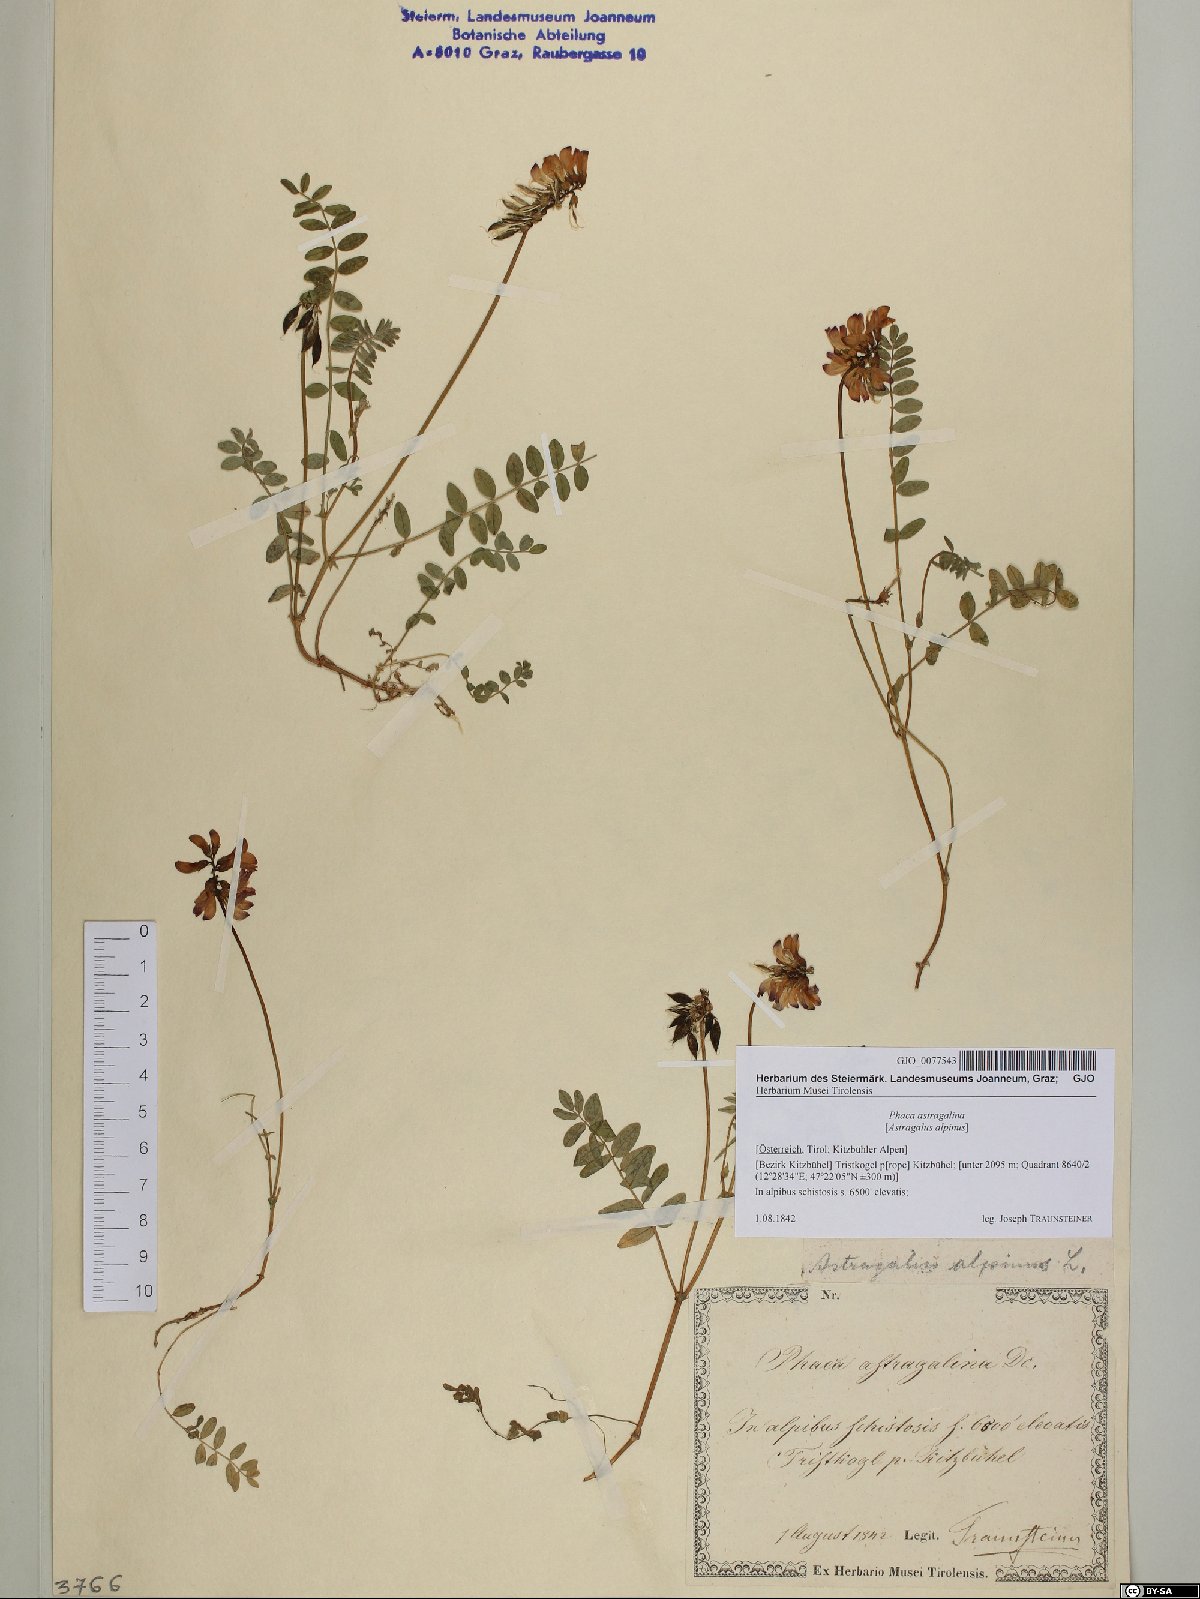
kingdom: Plantae
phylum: Tracheophyta
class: Magnoliopsida
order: Fabales
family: Fabaceae
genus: Astragalus
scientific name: Astragalus alpinus
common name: Alpine milk-vetch
